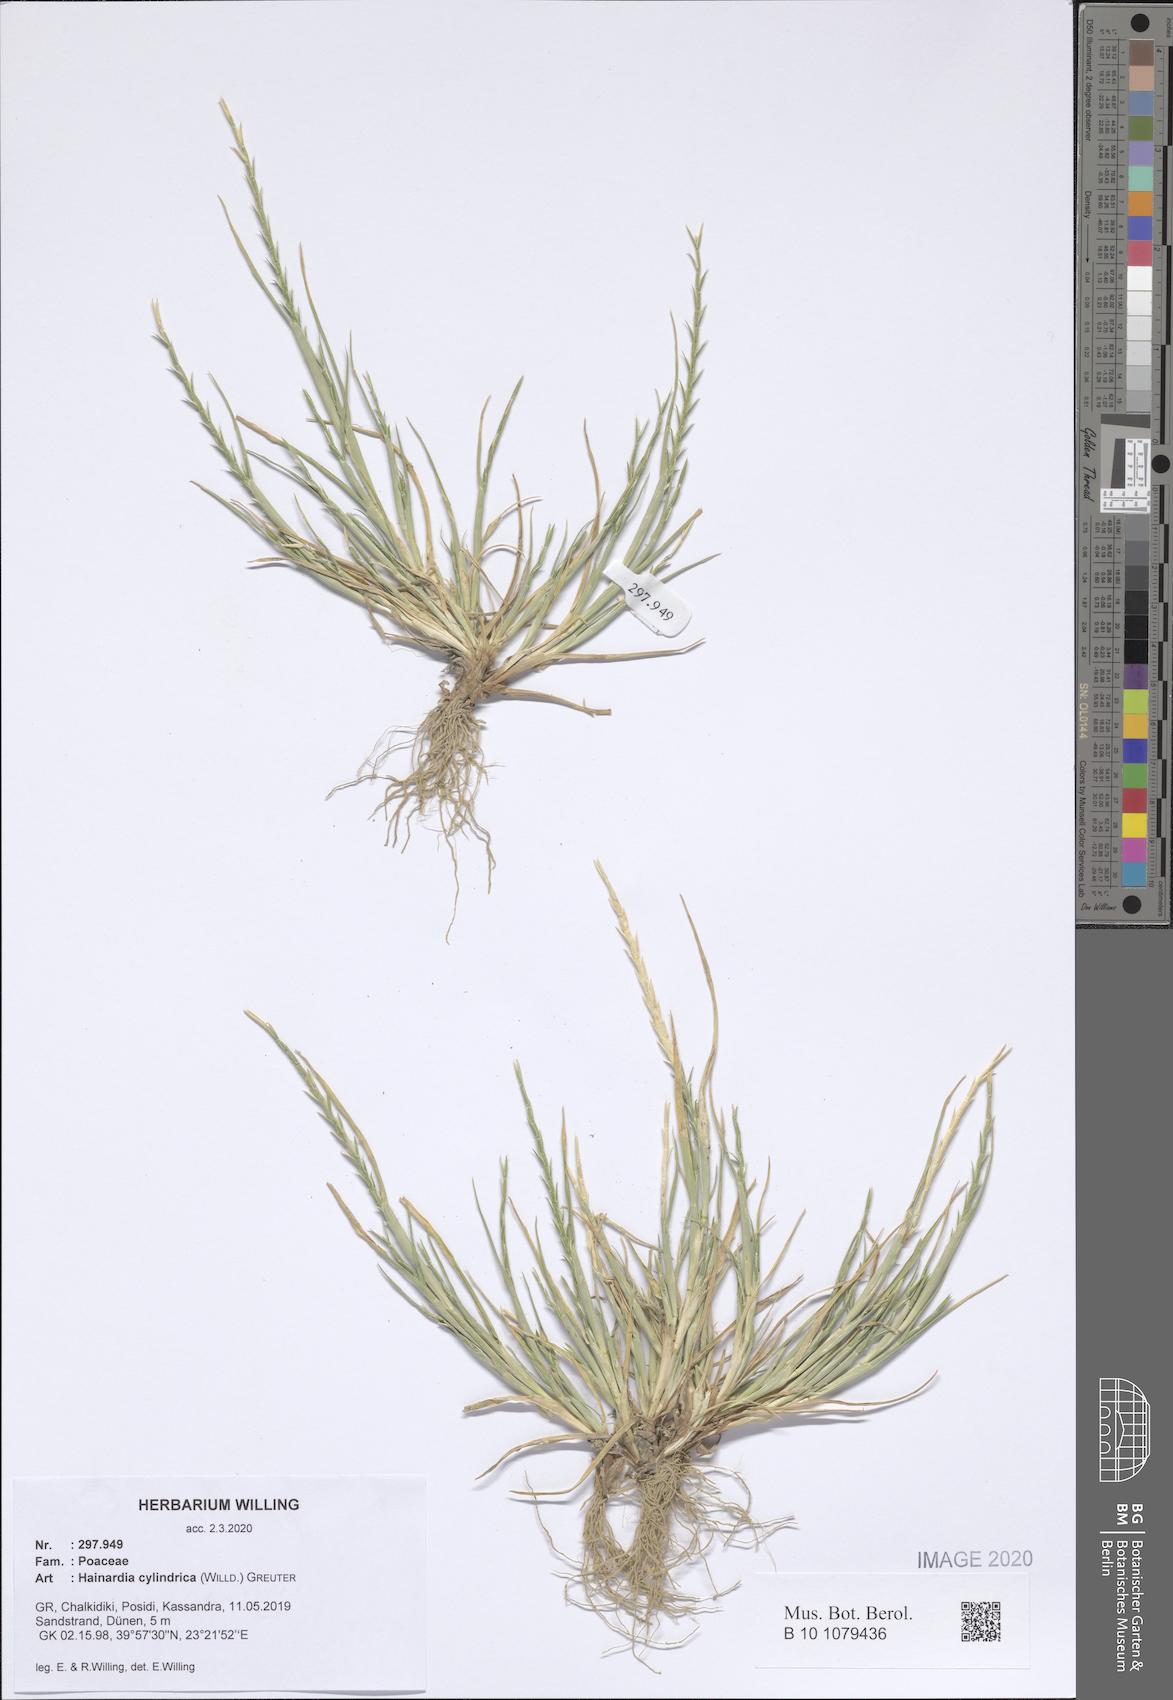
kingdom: Plantae
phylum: Tracheophyta
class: Liliopsida
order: Poales
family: Poaceae
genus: Parapholis
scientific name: Parapholis cylindrica
